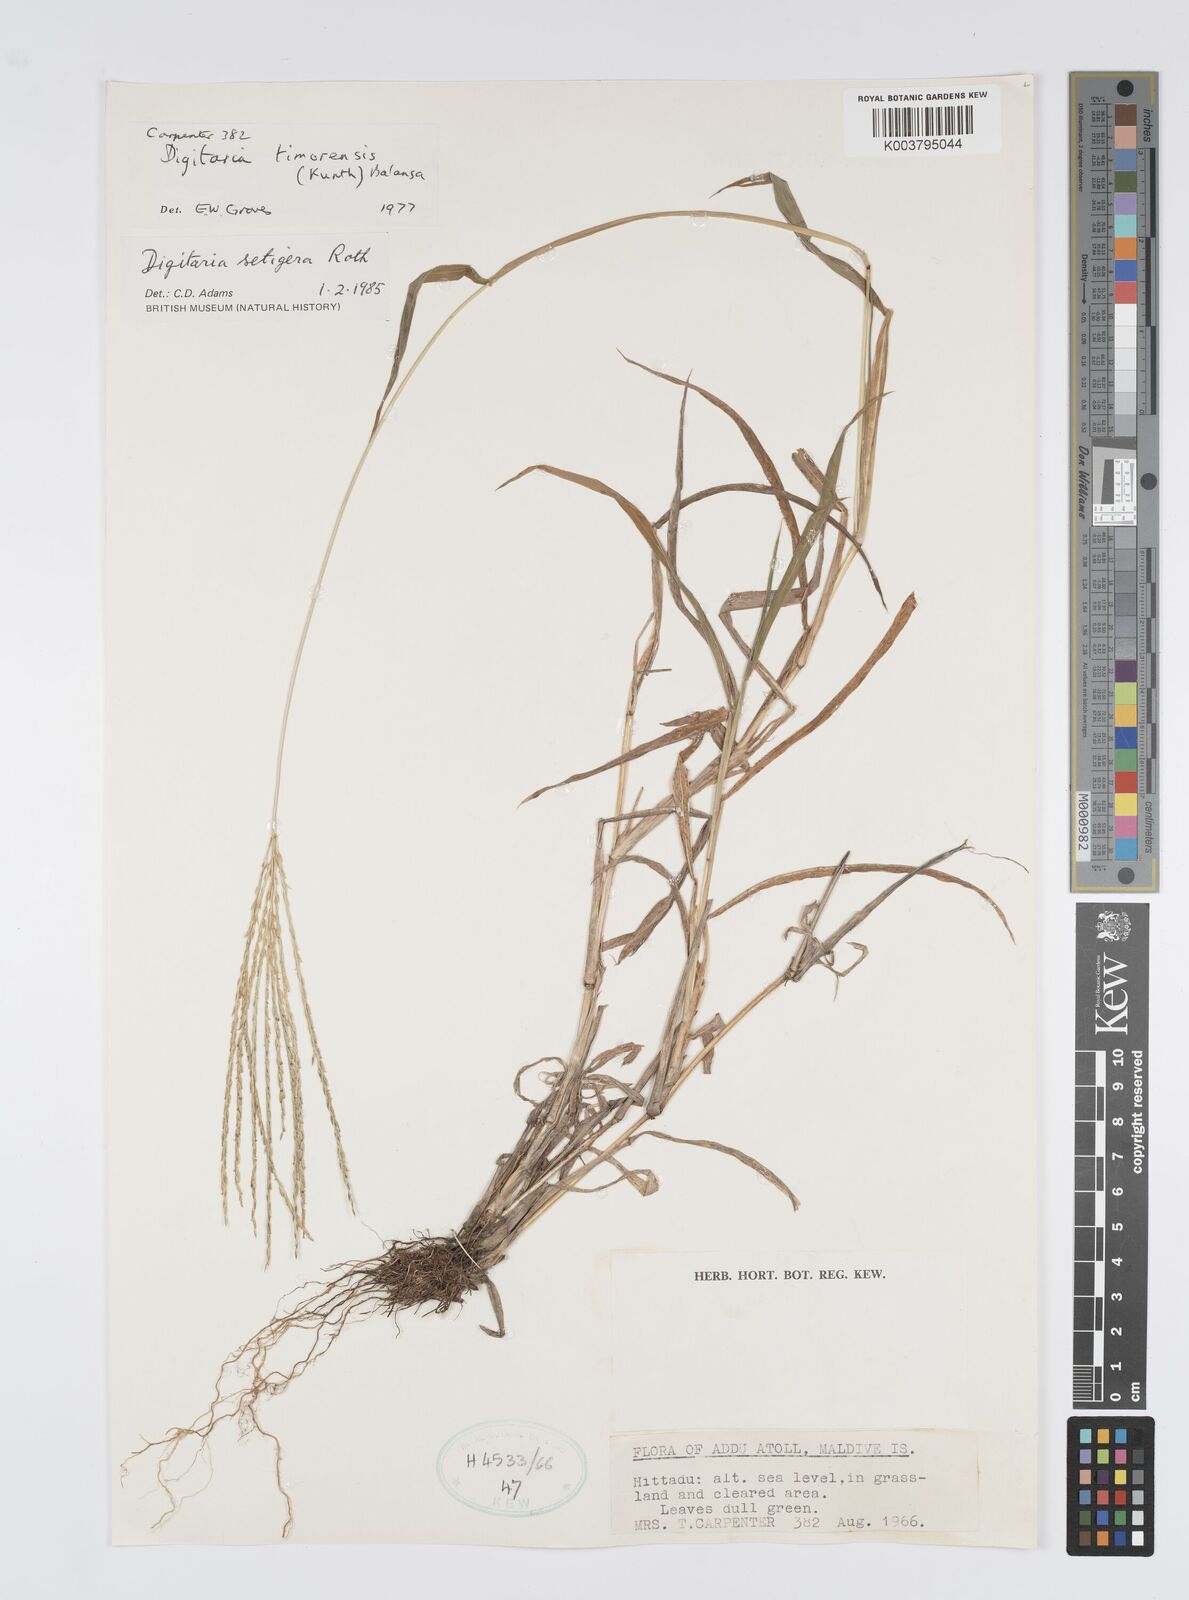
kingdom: Plantae
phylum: Tracheophyta
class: Liliopsida
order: Poales
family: Poaceae
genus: Digitaria
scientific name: Digitaria setigera
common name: East indian crabgrass
